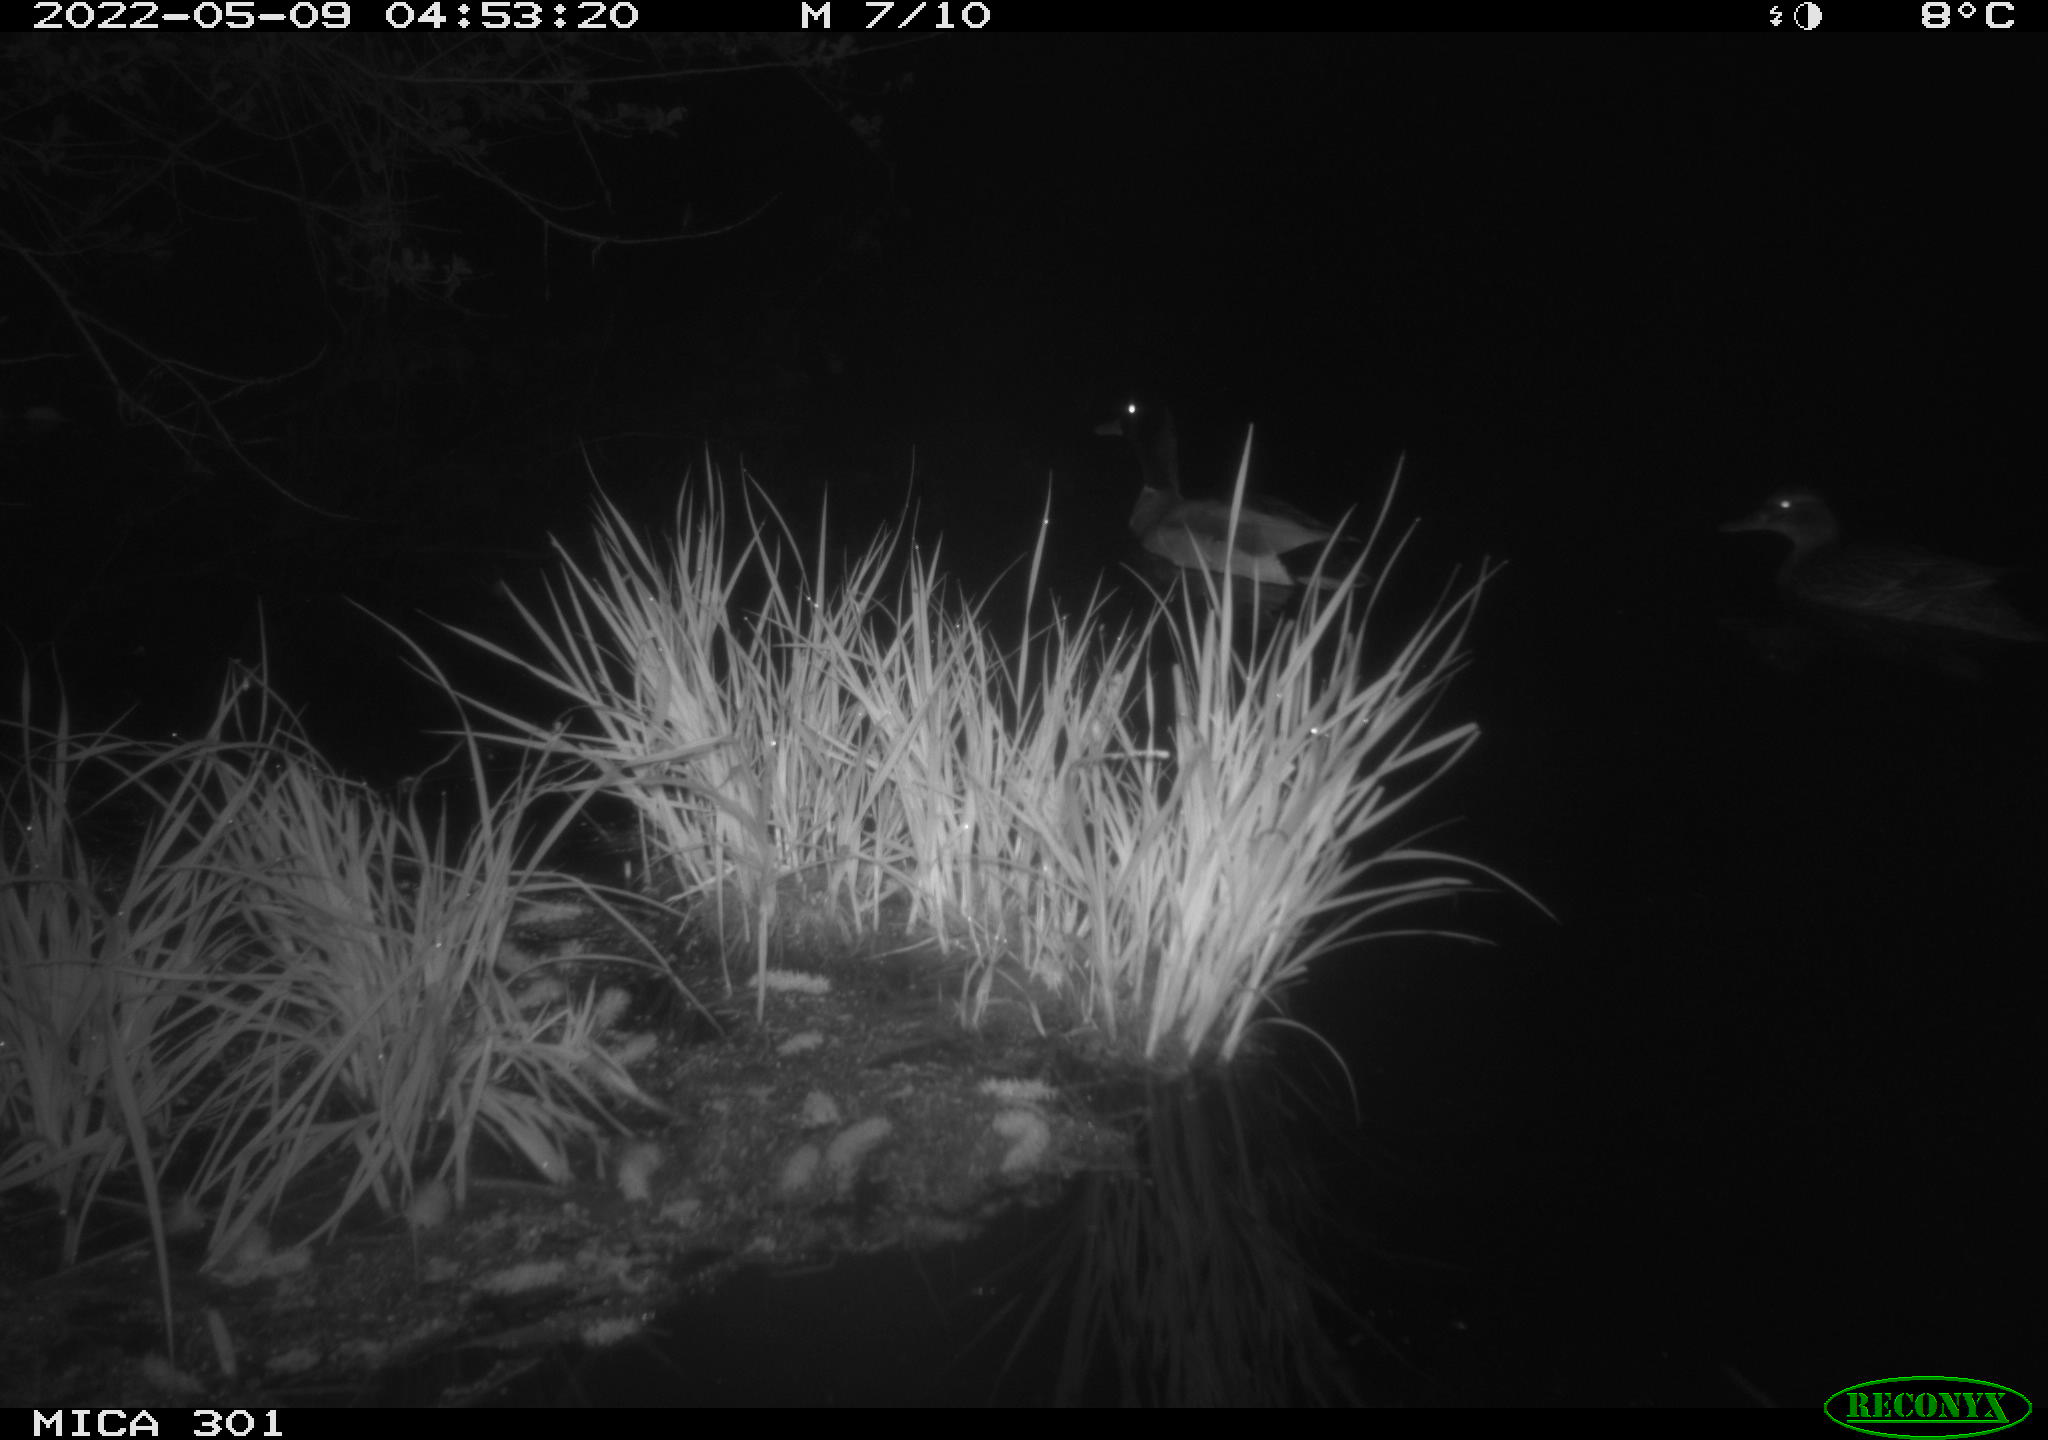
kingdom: Animalia
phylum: Chordata
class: Aves
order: Anseriformes
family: Anatidae
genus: Anas
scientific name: Anas platyrhynchos
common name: Mallard
